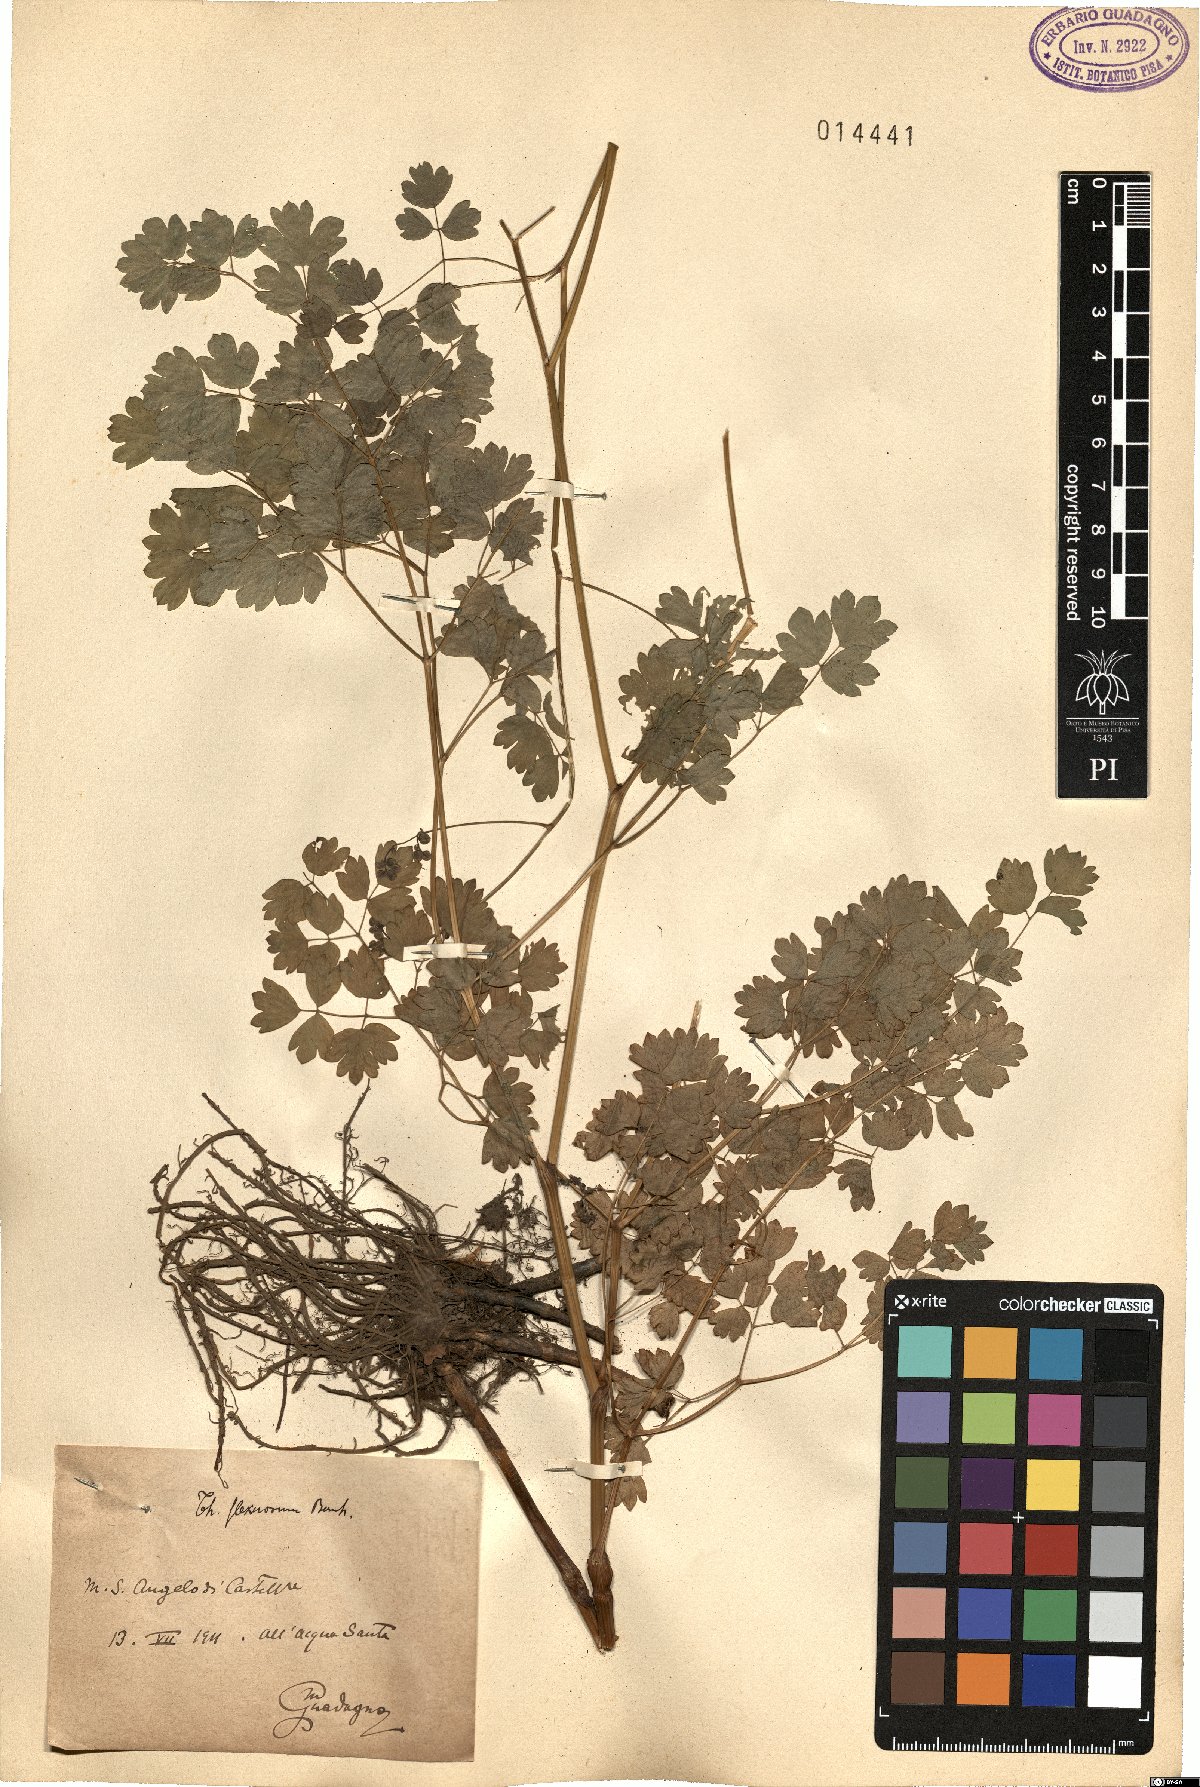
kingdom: Plantae
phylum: Tracheophyta
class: Magnoliopsida
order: Ranunculales
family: Ranunculaceae
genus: Thalictrum
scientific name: Thalictrum minus
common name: Lesser meadow-rue
